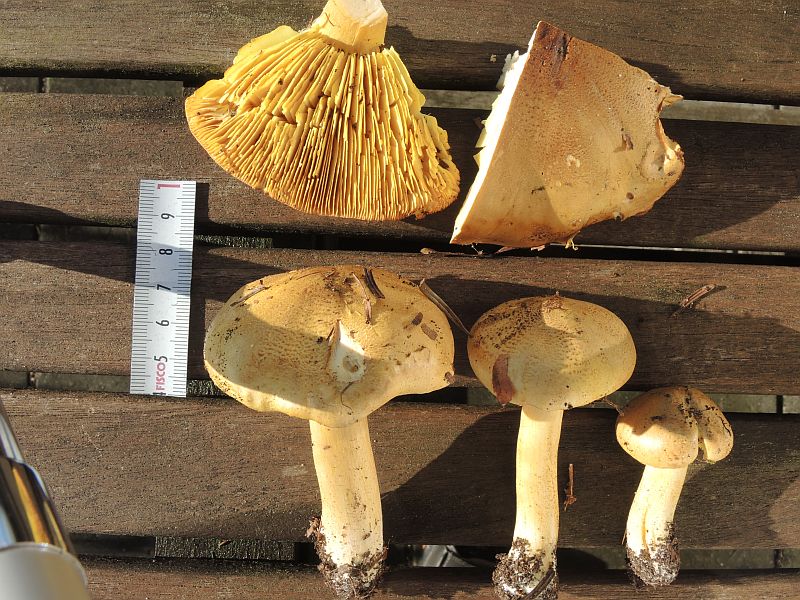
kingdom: Fungi
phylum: Basidiomycota
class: Agaricomycetes
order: Agaricales
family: Tricholomataceae
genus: Tricholoma
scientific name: Tricholoma frondosae
